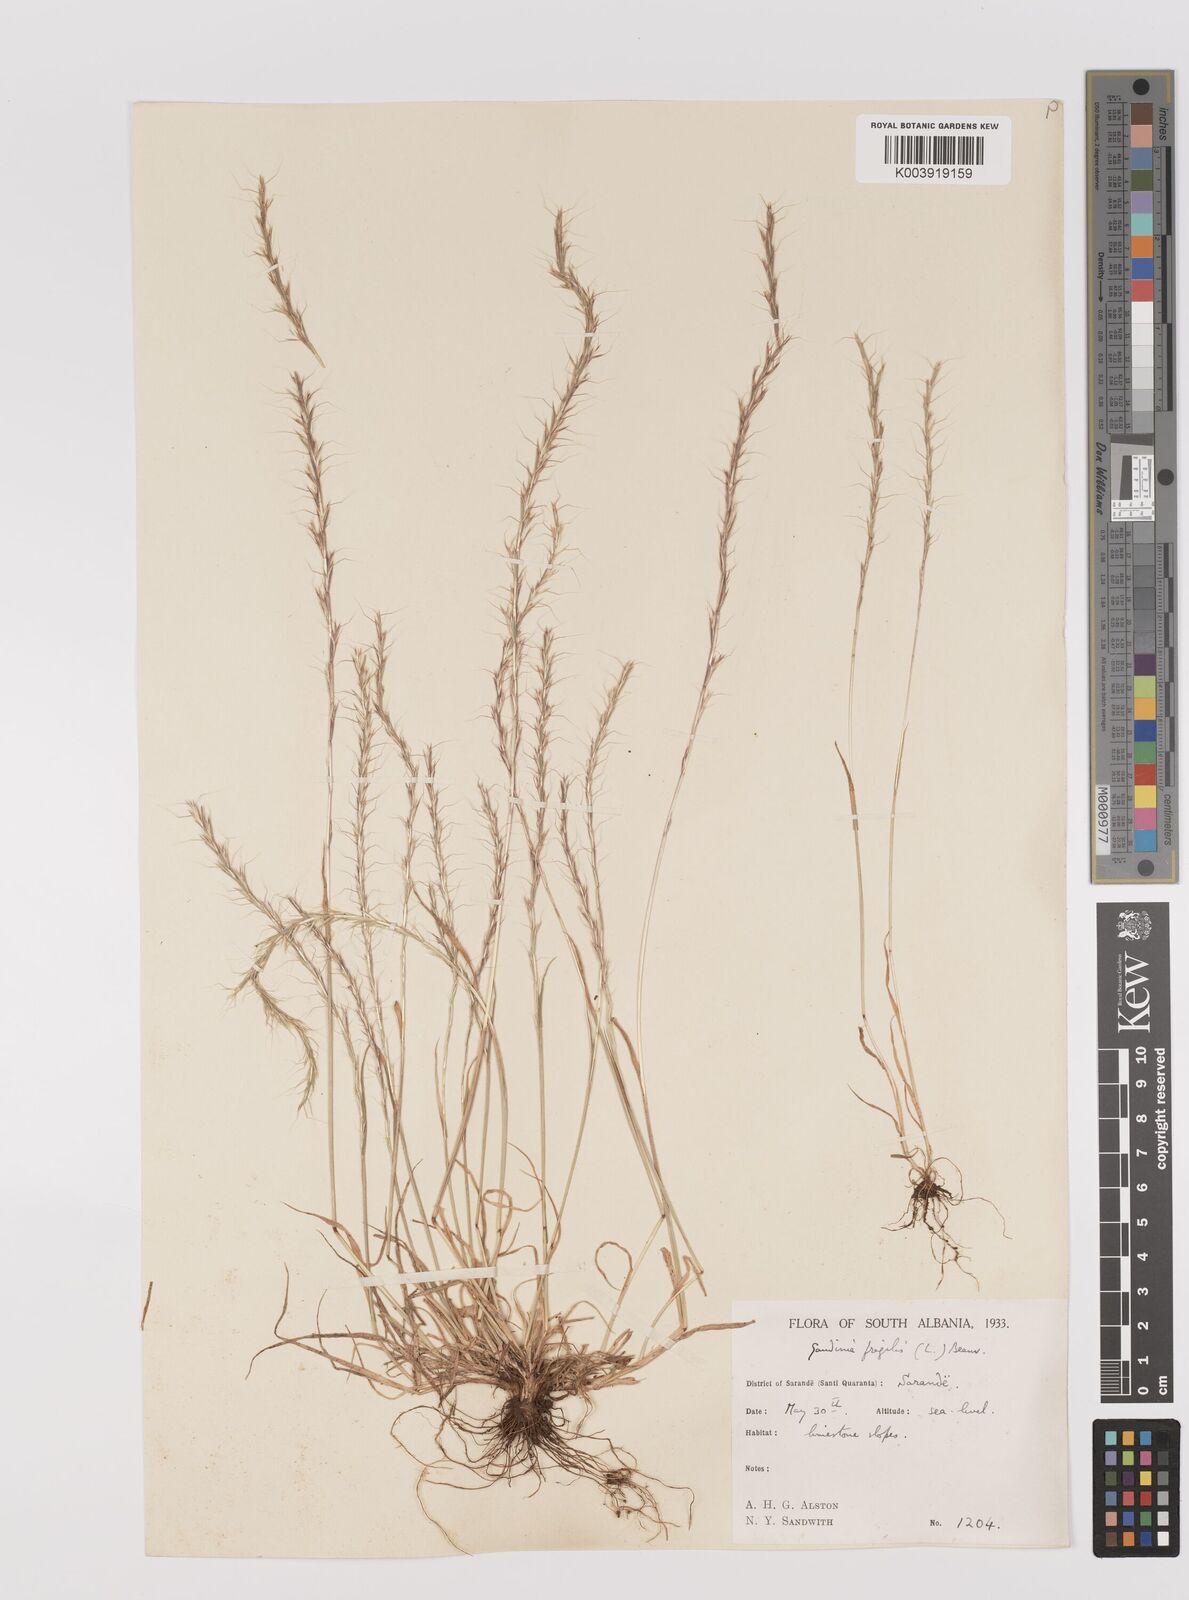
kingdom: Plantae
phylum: Tracheophyta
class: Liliopsida
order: Poales
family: Poaceae
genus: Gaudinia
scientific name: Gaudinia fragilis
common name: French oat-grass
